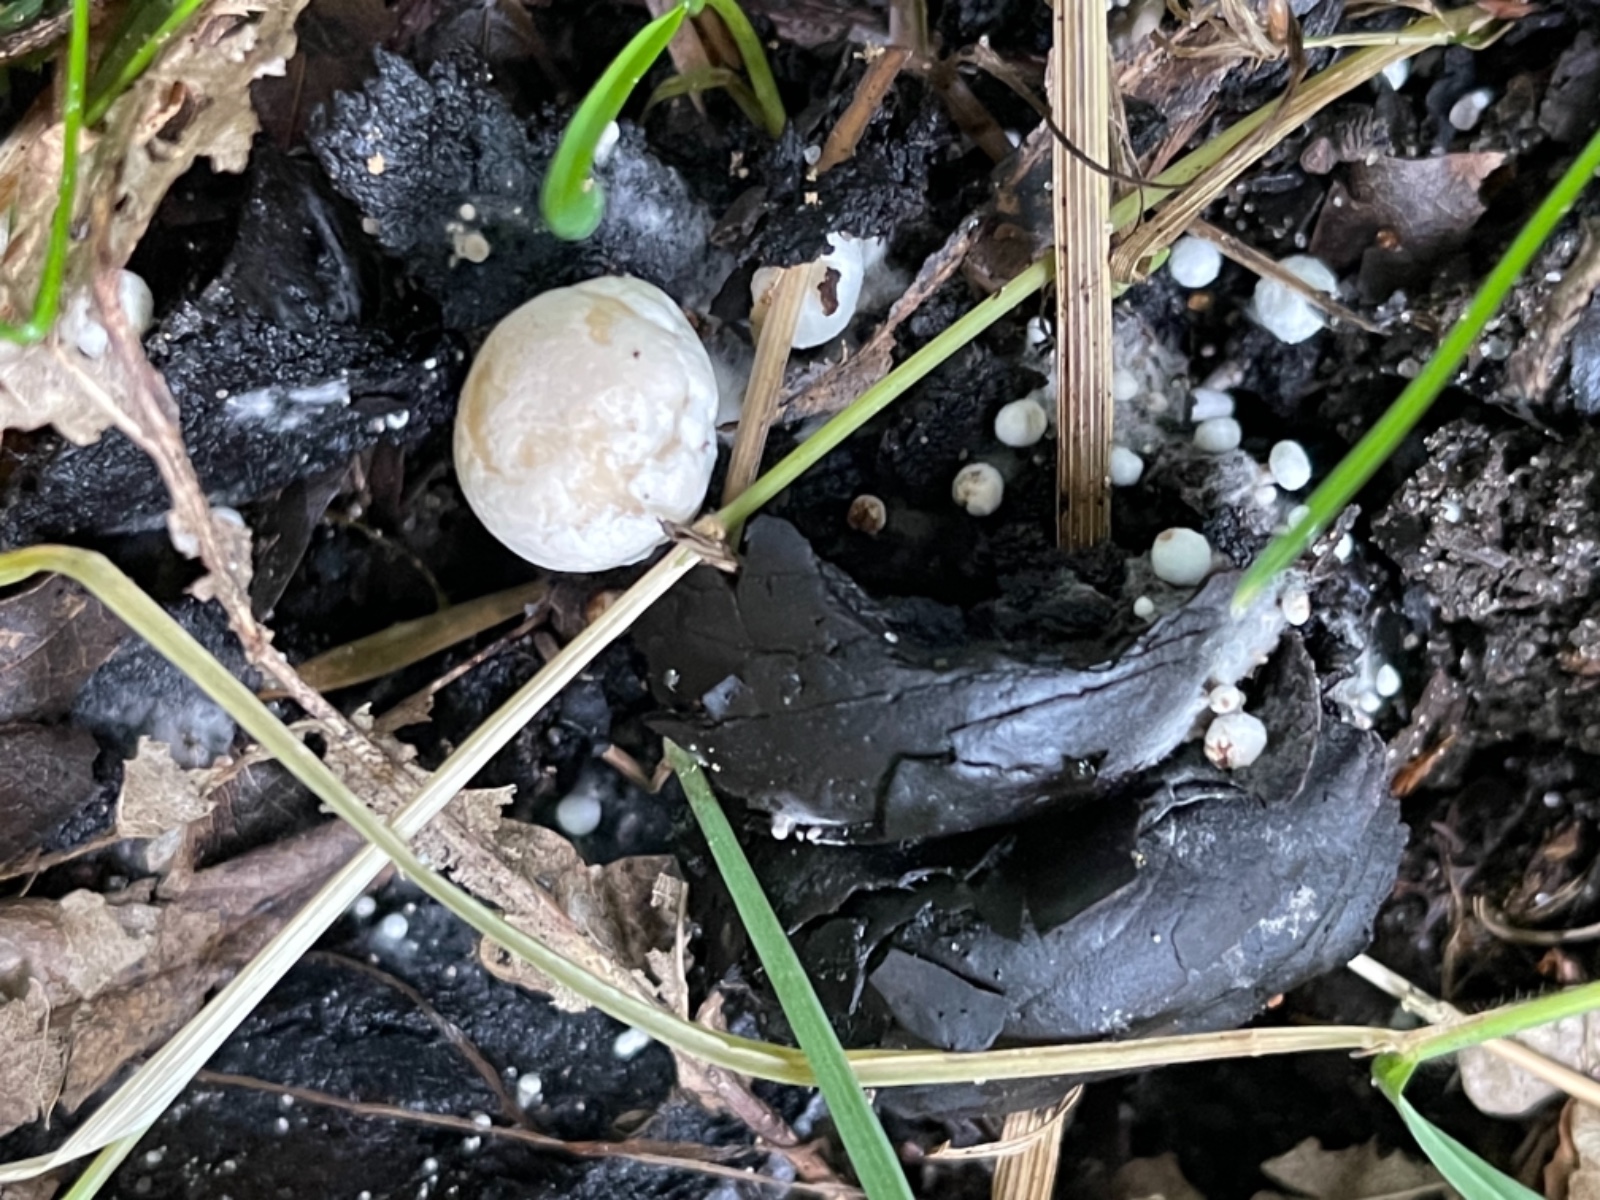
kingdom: Fungi
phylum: Basidiomycota
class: Agaricomycetes
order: Agaricales
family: Lyophyllaceae
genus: Asterophora
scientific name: Asterophora lycoperdoides
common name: brunpudret snyltehat
